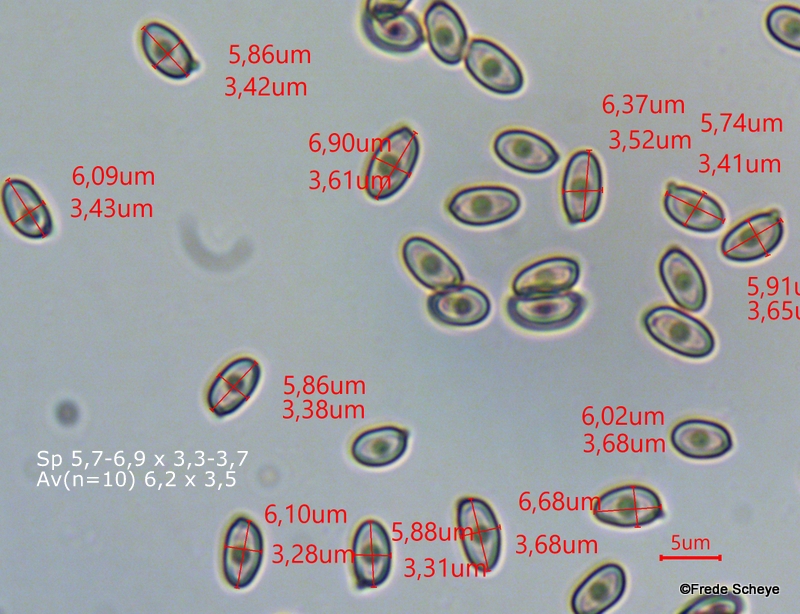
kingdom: Fungi
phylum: Basidiomycota
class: Agaricomycetes
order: Agaricales
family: Agaricaceae
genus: Agaricus
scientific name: Agaricus impudicus
